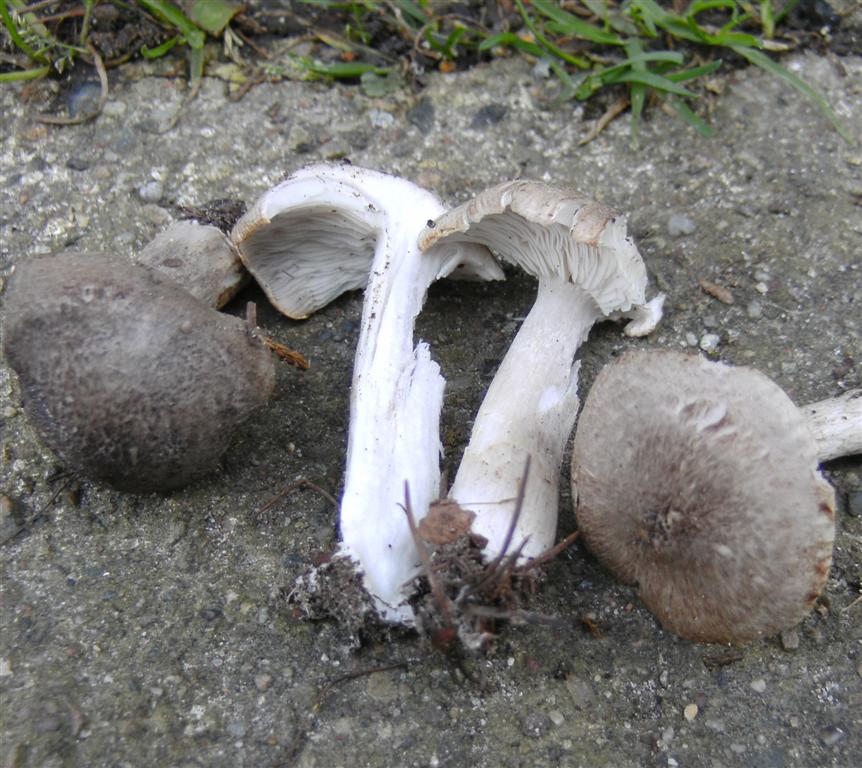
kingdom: Fungi
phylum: Basidiomycota
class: Agaricomycetes
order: Agaricales
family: Tricholomataceae
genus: Tricholoma
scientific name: Tricholoma scalpturatum
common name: gulplettet ridderhat
